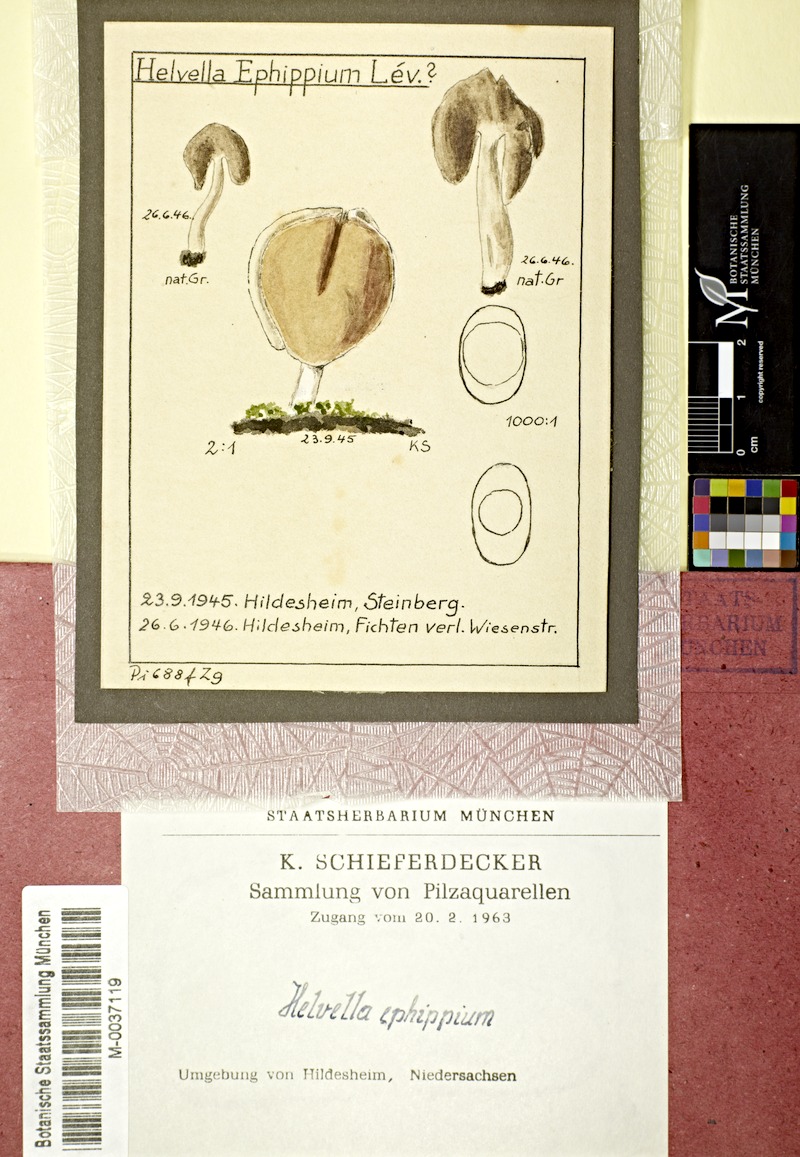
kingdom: Fungi
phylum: Ascomycota
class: Pezizomycetes
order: Pezizales
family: Helvellaceae
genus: Helvella
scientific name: Helvella ephippium
